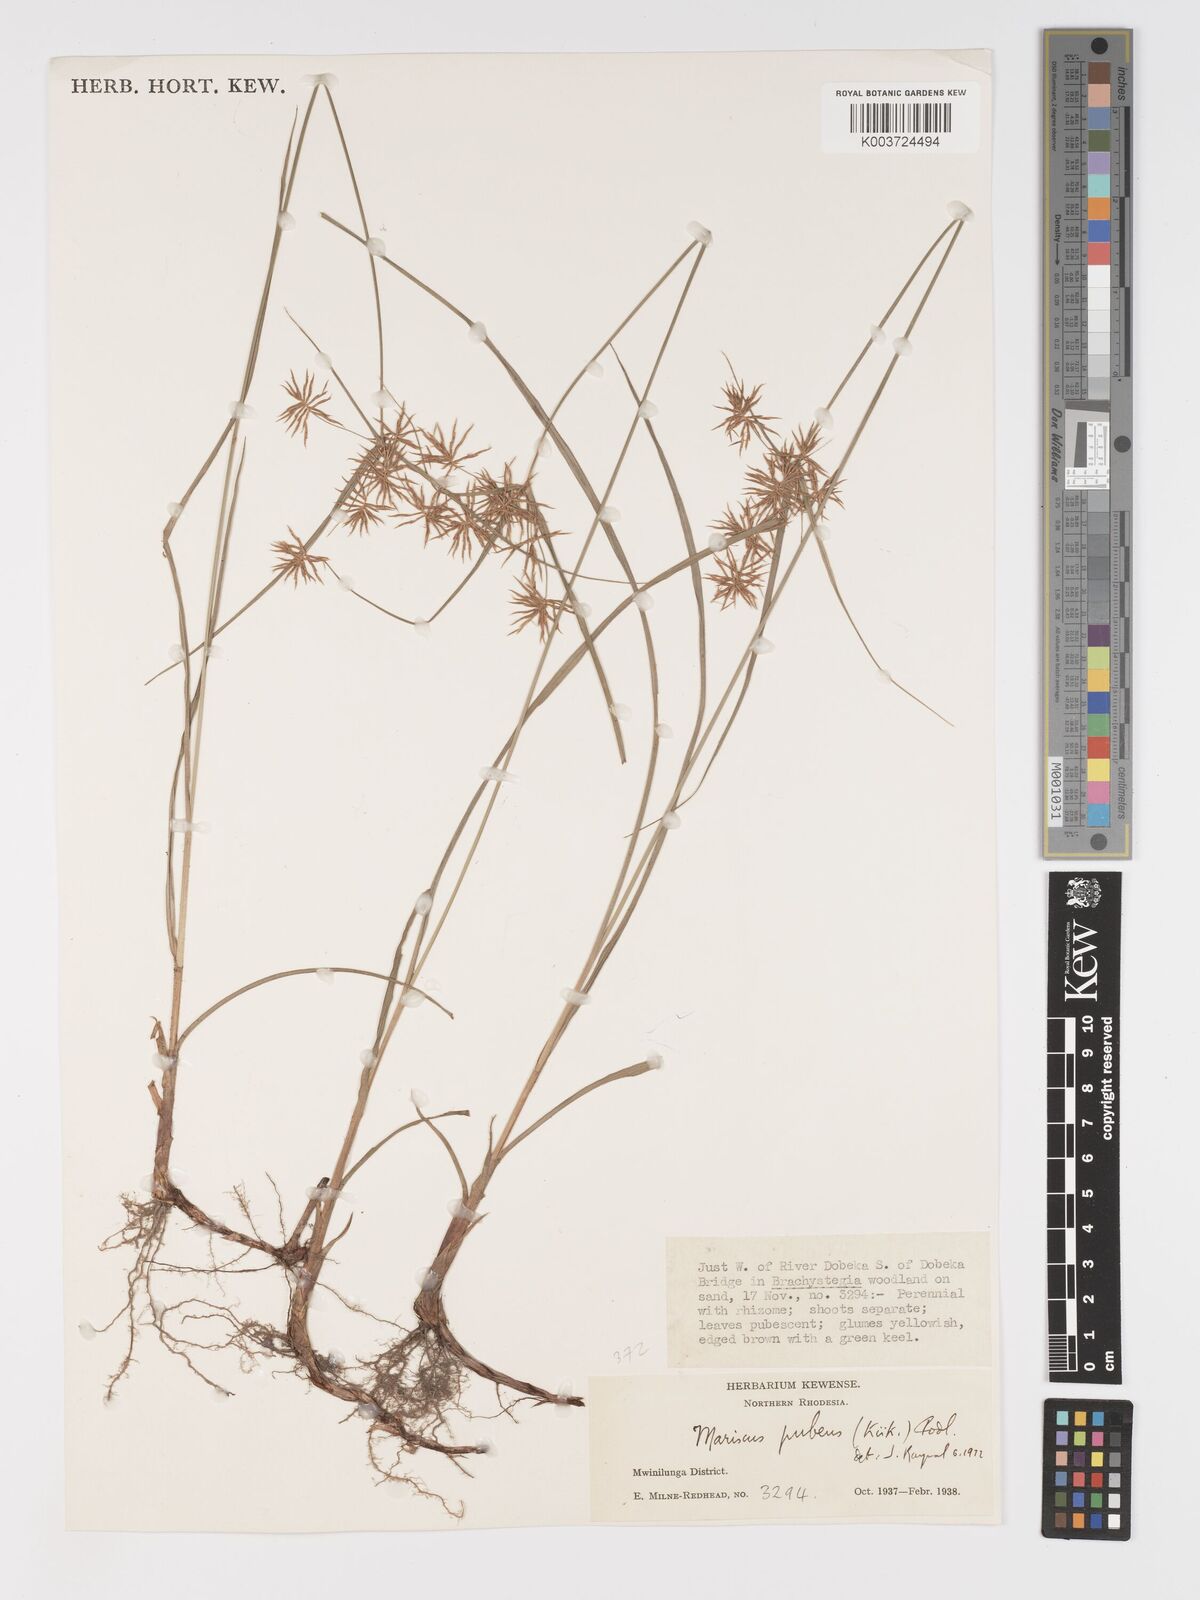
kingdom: Plantae
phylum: Tracheophyta
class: Liliopsida
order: Poales
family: Cyperaceae
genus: Cyperus
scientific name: Cyperus pubens
